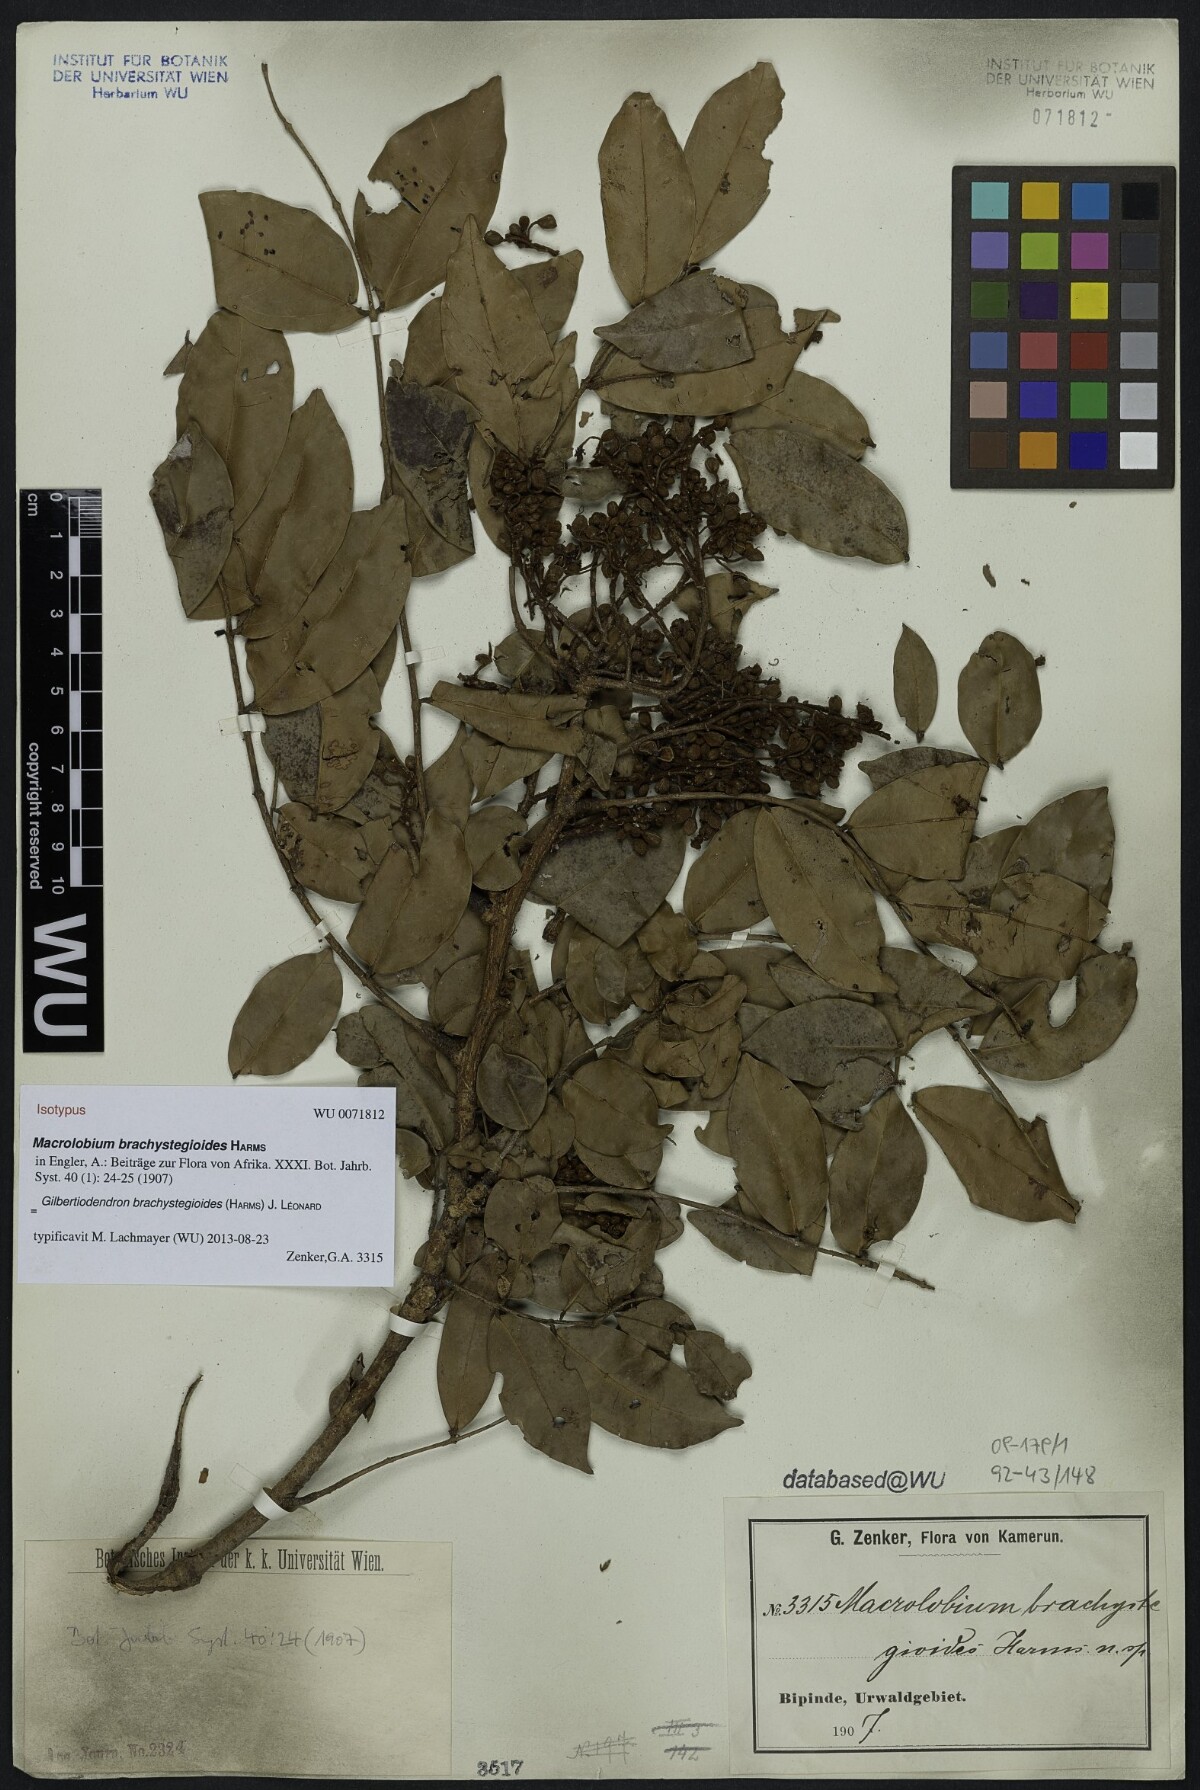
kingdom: Plantae
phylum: Tracheophyta
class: Magnoliopsida
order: Fabales
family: Fabaceae
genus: Gilbertiodendron
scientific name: Gilbertiodendron brachystegioides
